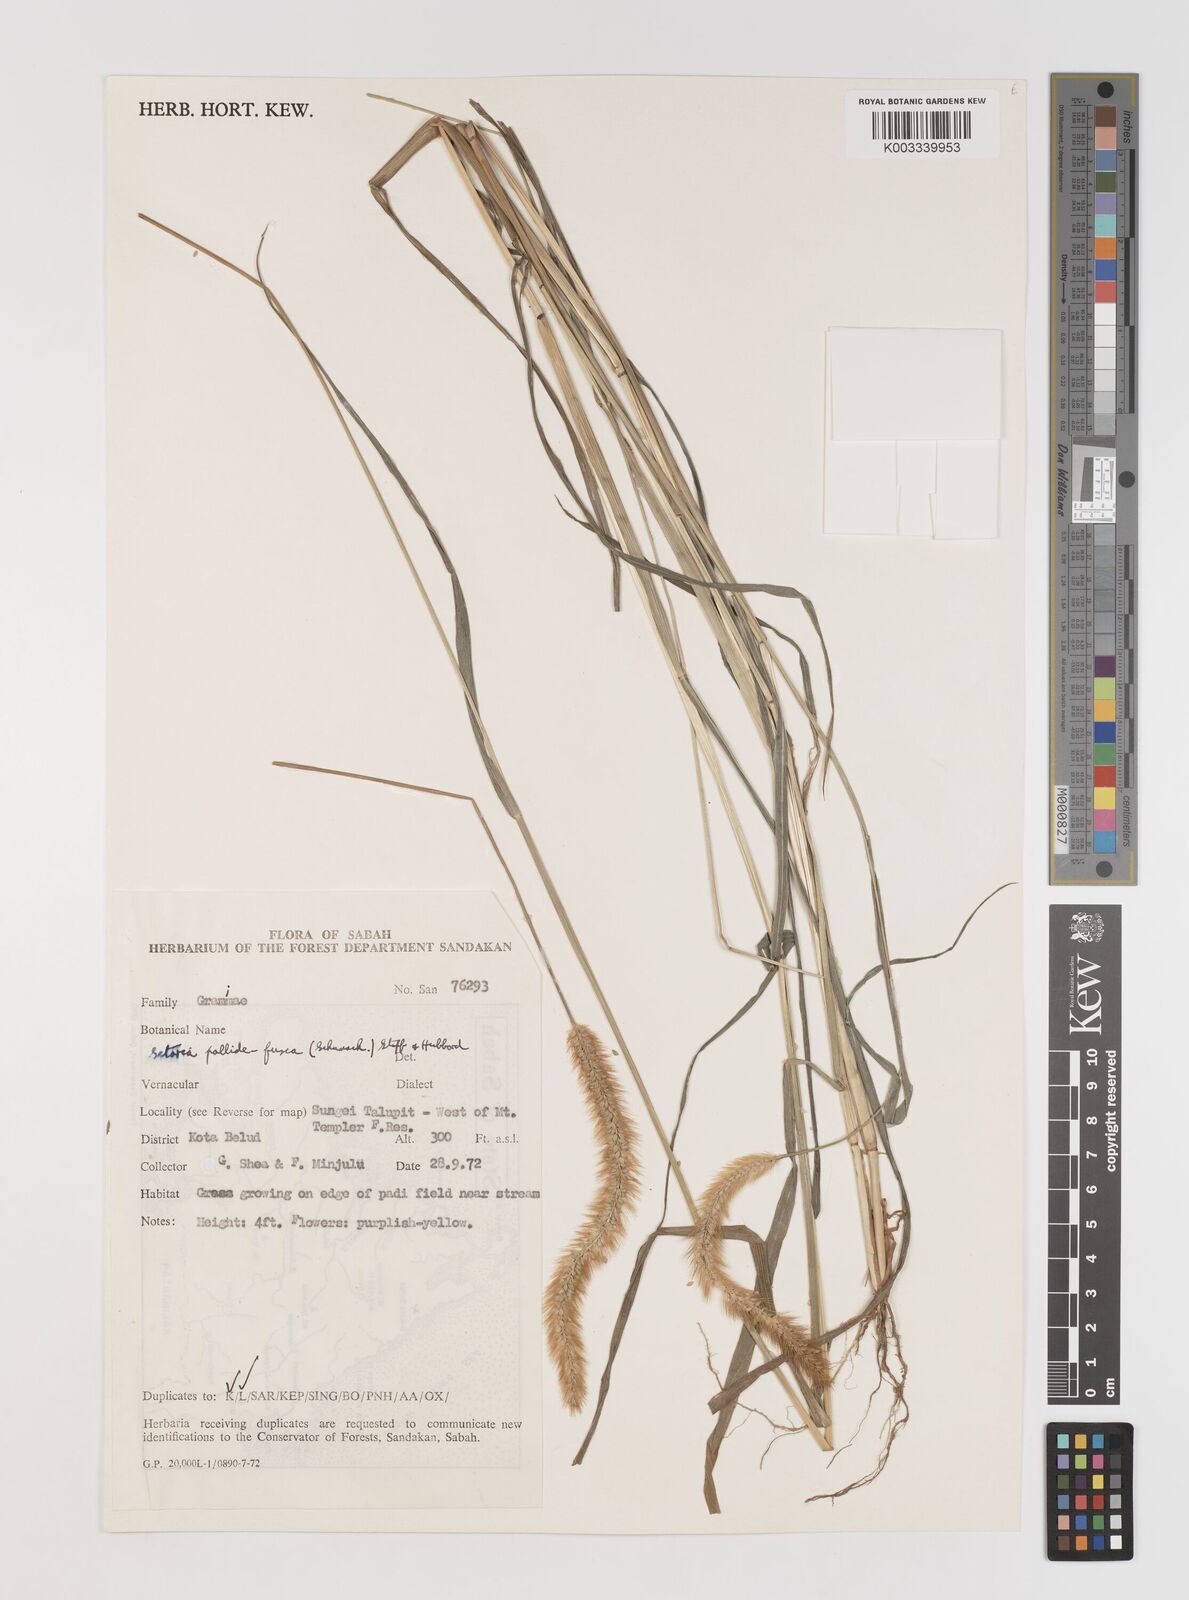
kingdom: Plantae
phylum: Tracheophyta
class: Liliopsida
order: Poales
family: Poaceae
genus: Setaria
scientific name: Setaria parviflora
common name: Knotroot bristle-grass
